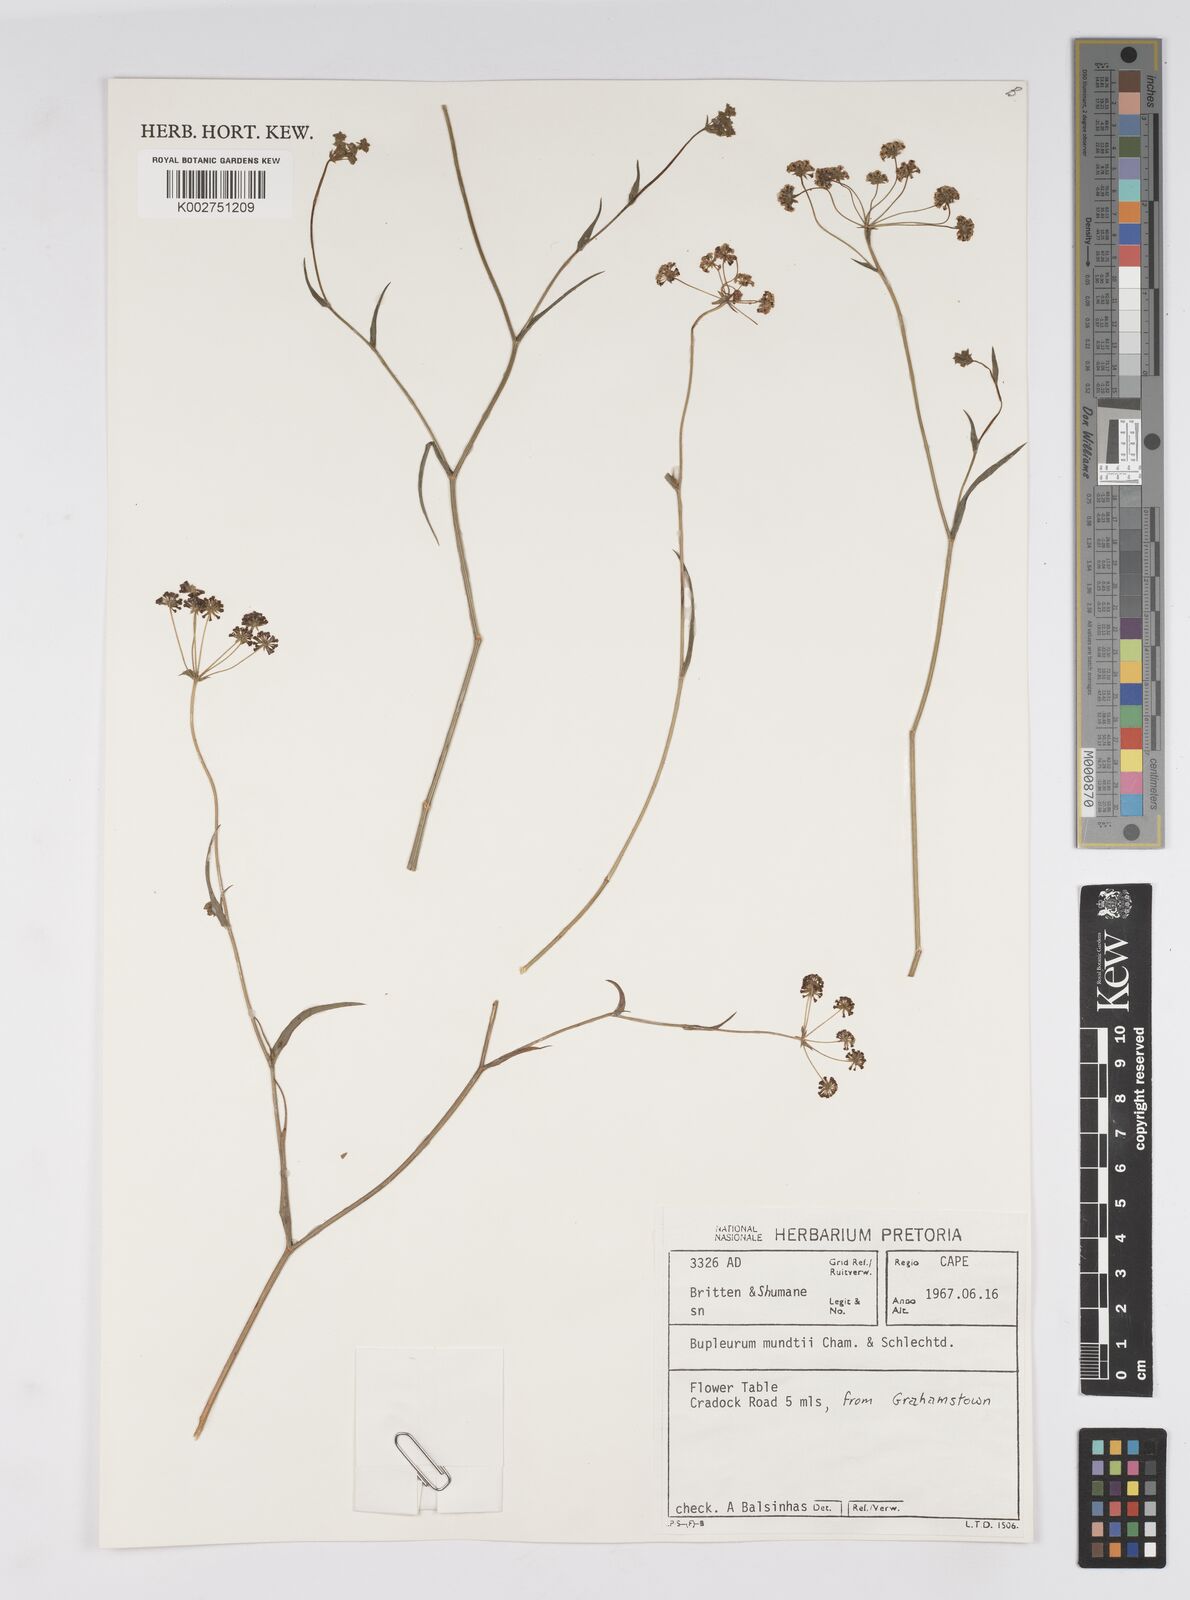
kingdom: Plantae
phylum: Tracheophyta
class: Magnoliopsida
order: Apiales
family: Apiaceae
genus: Bupleurum
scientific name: Bupleurum mundii
